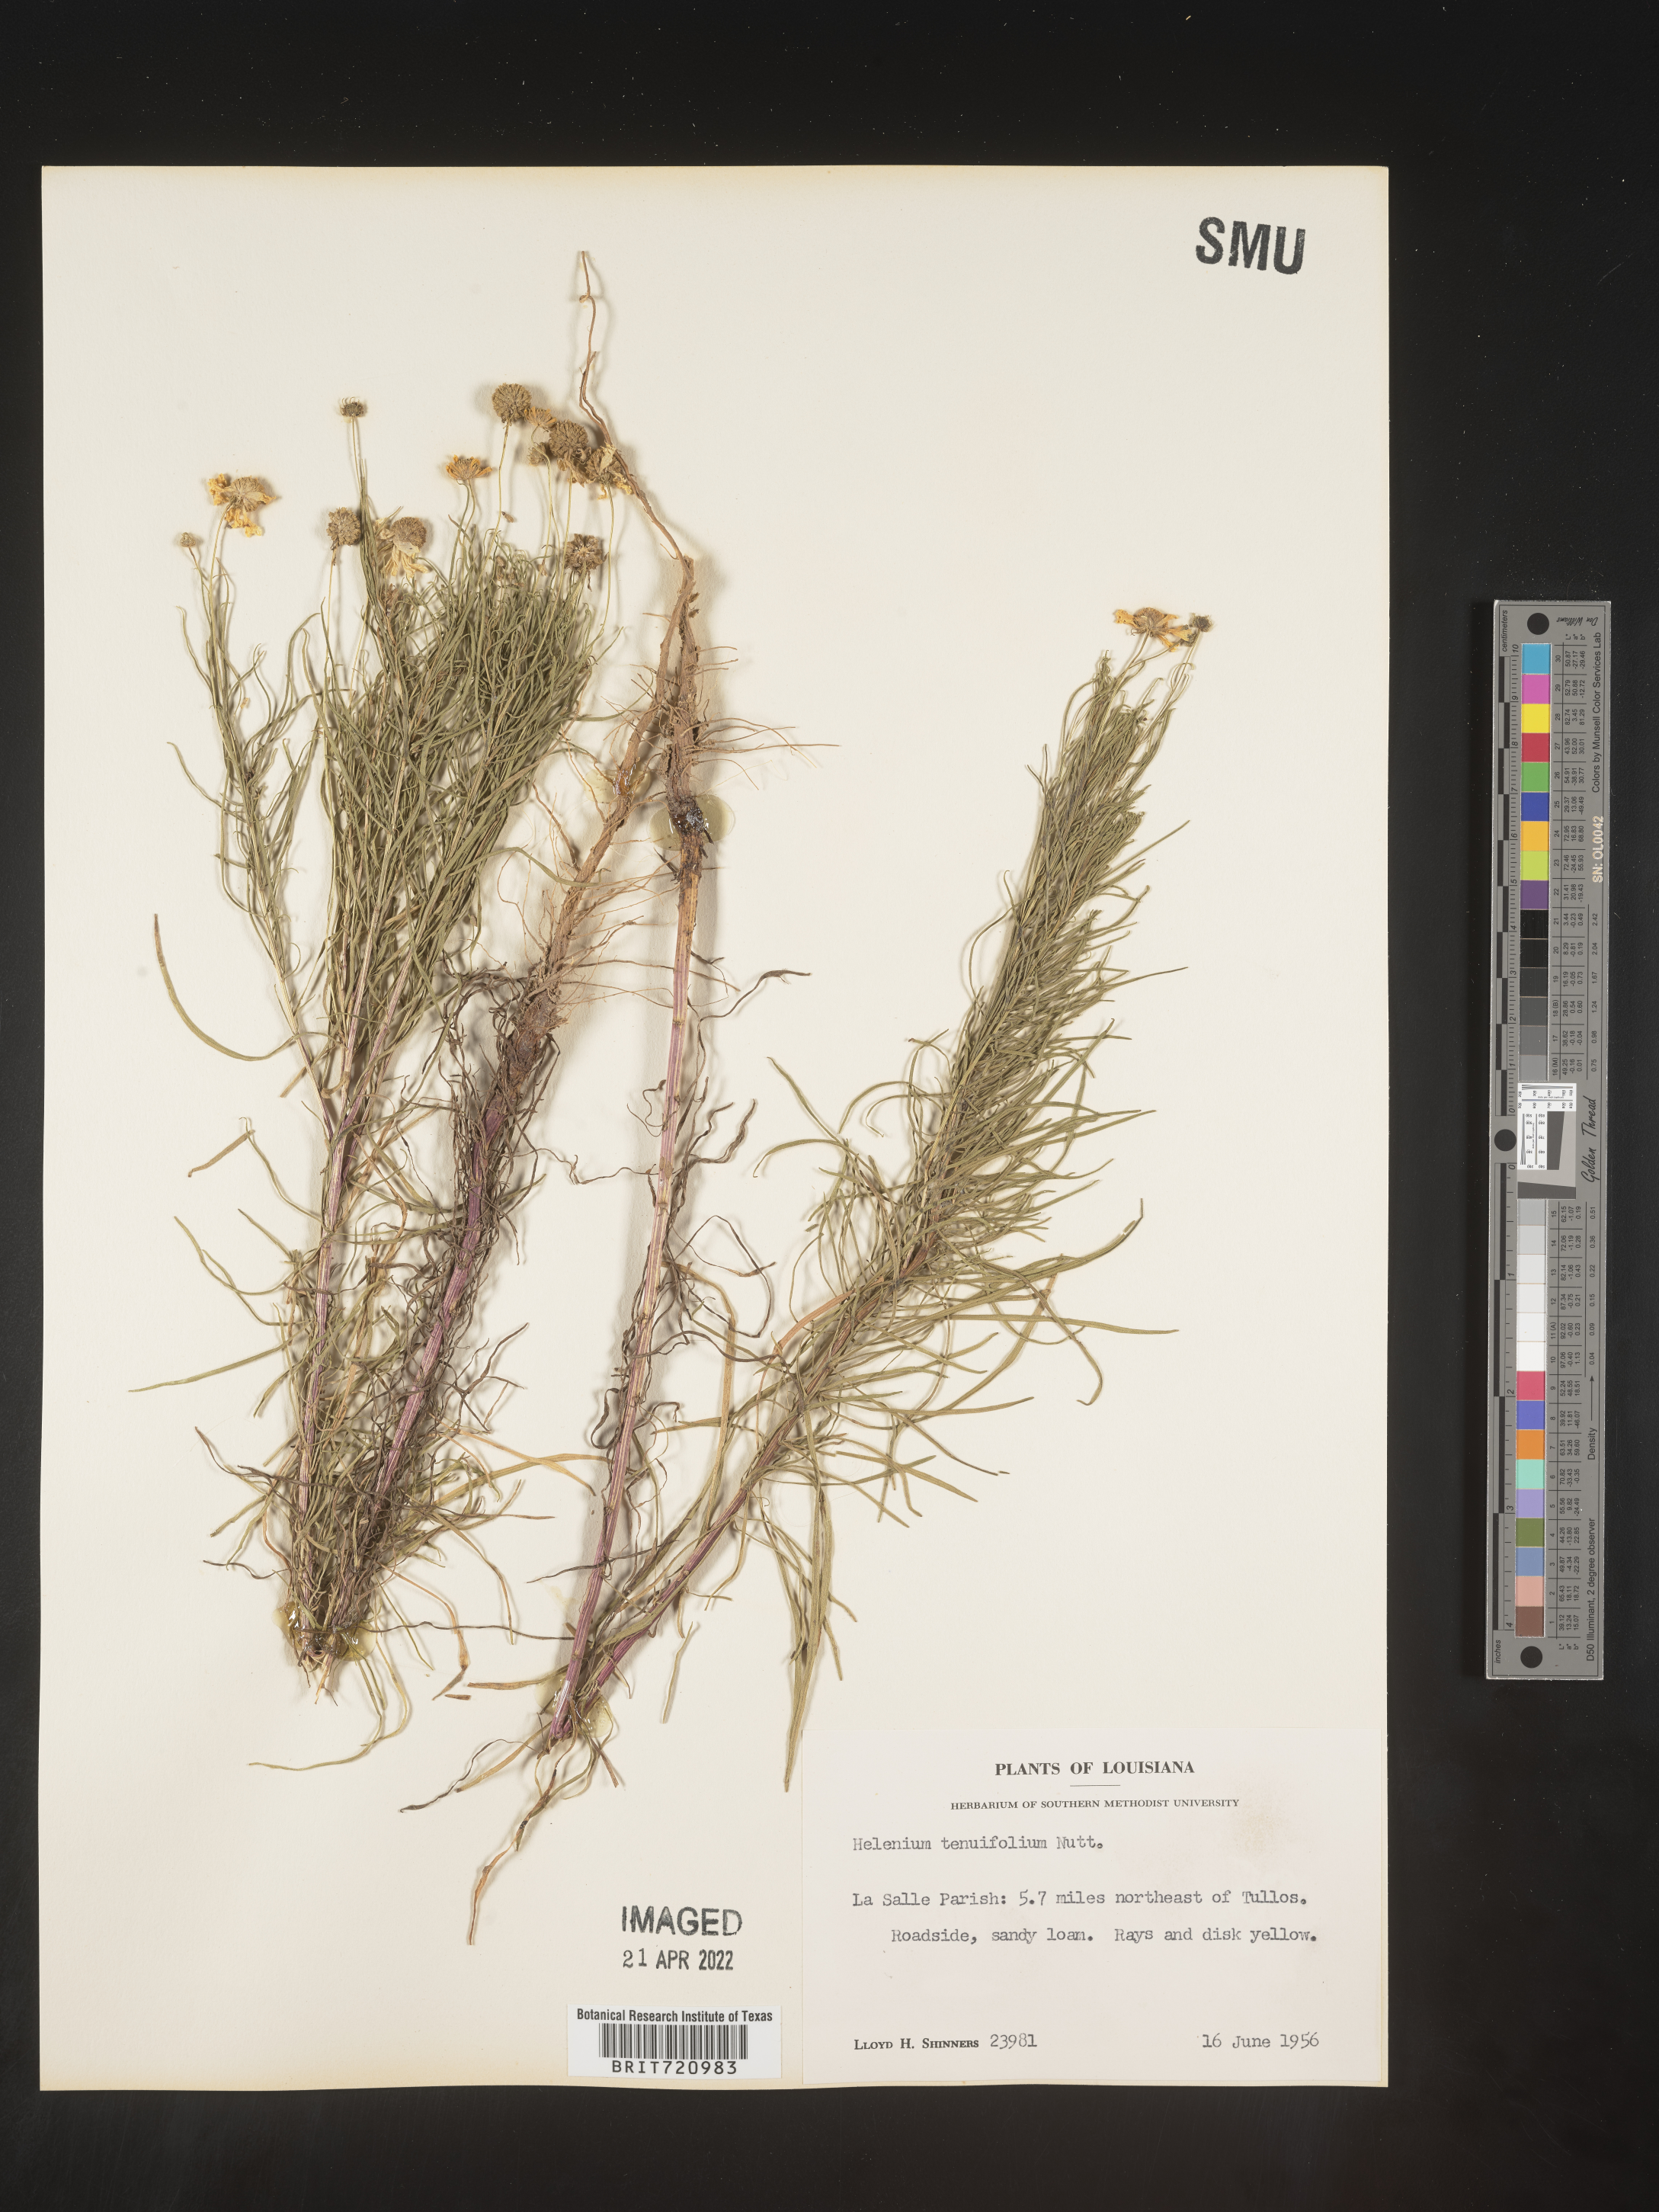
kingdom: Plantae
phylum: Tracheophyta
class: Magnoliopsida
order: Asterales
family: Asteraceae
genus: Helenium
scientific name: Helenium amarum
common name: Bitter sneezeweed
